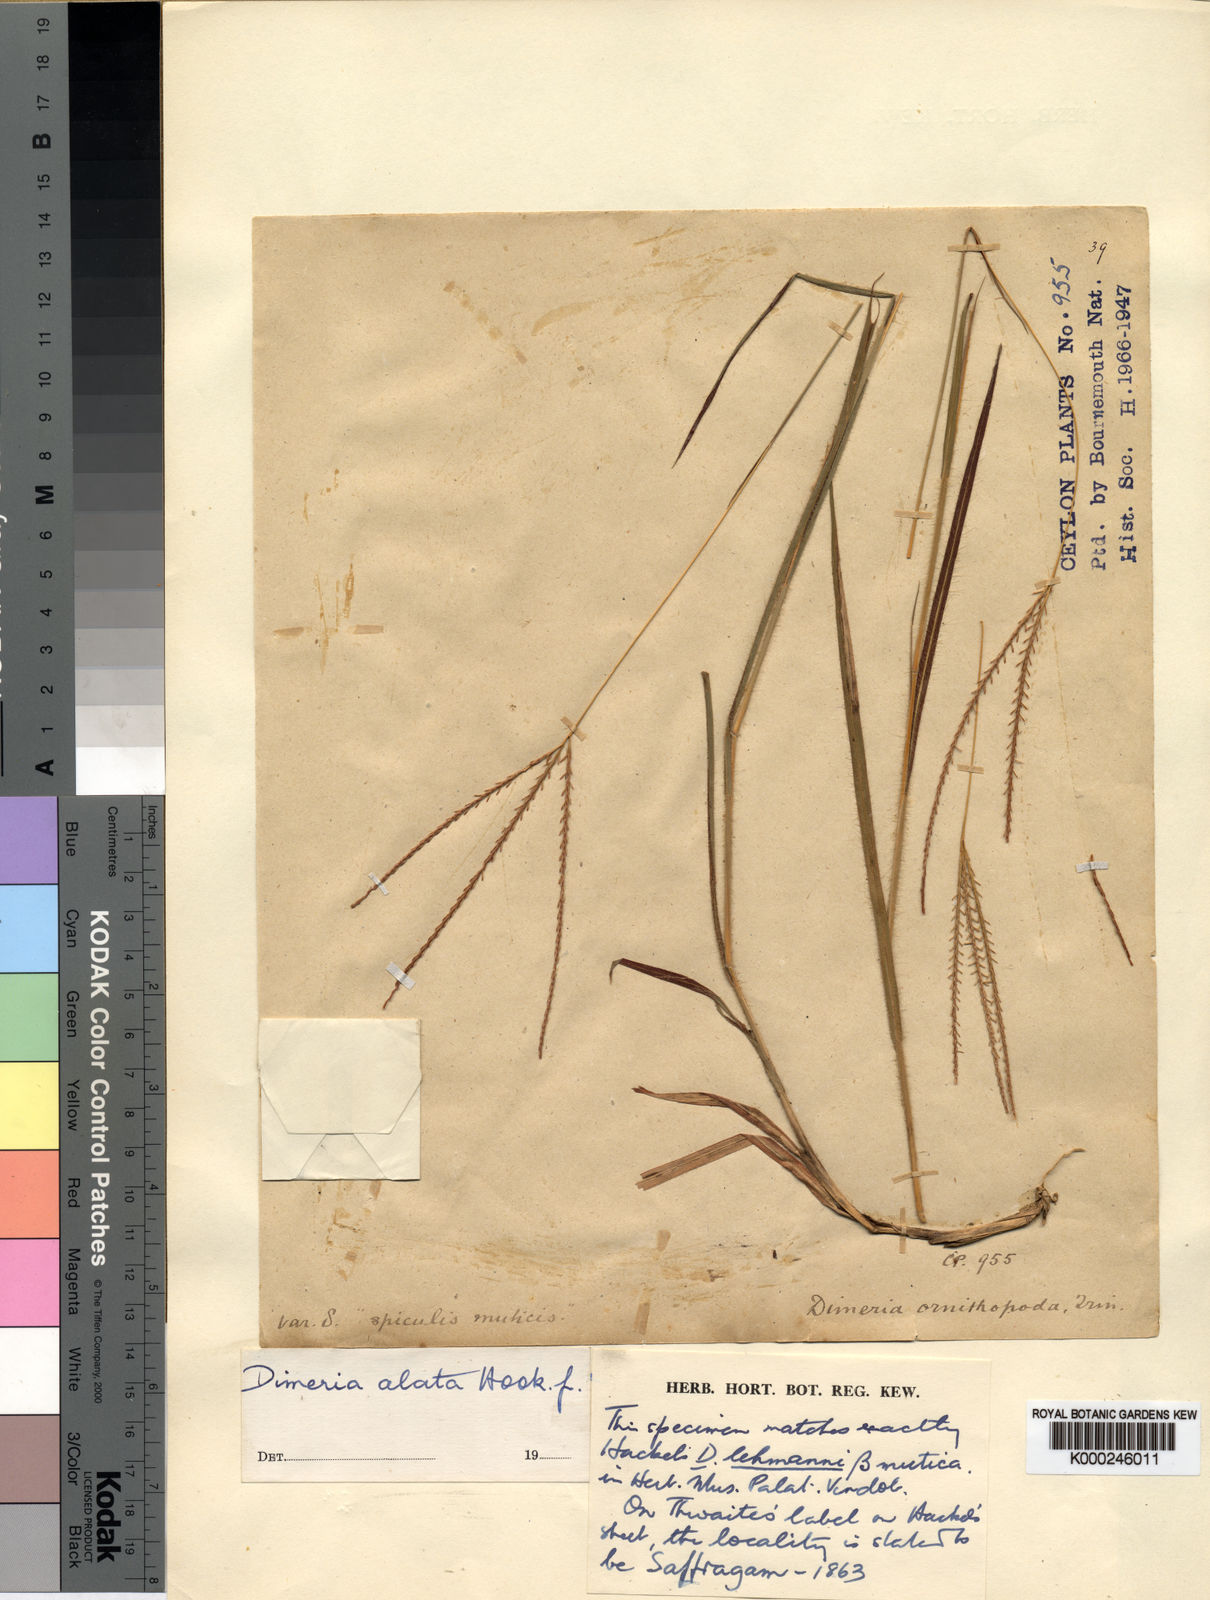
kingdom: Plantae
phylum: Tracheophyta
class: Liliopsida
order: Poales
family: Poaceae
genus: Dimeria
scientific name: Dimeria lehmannii
